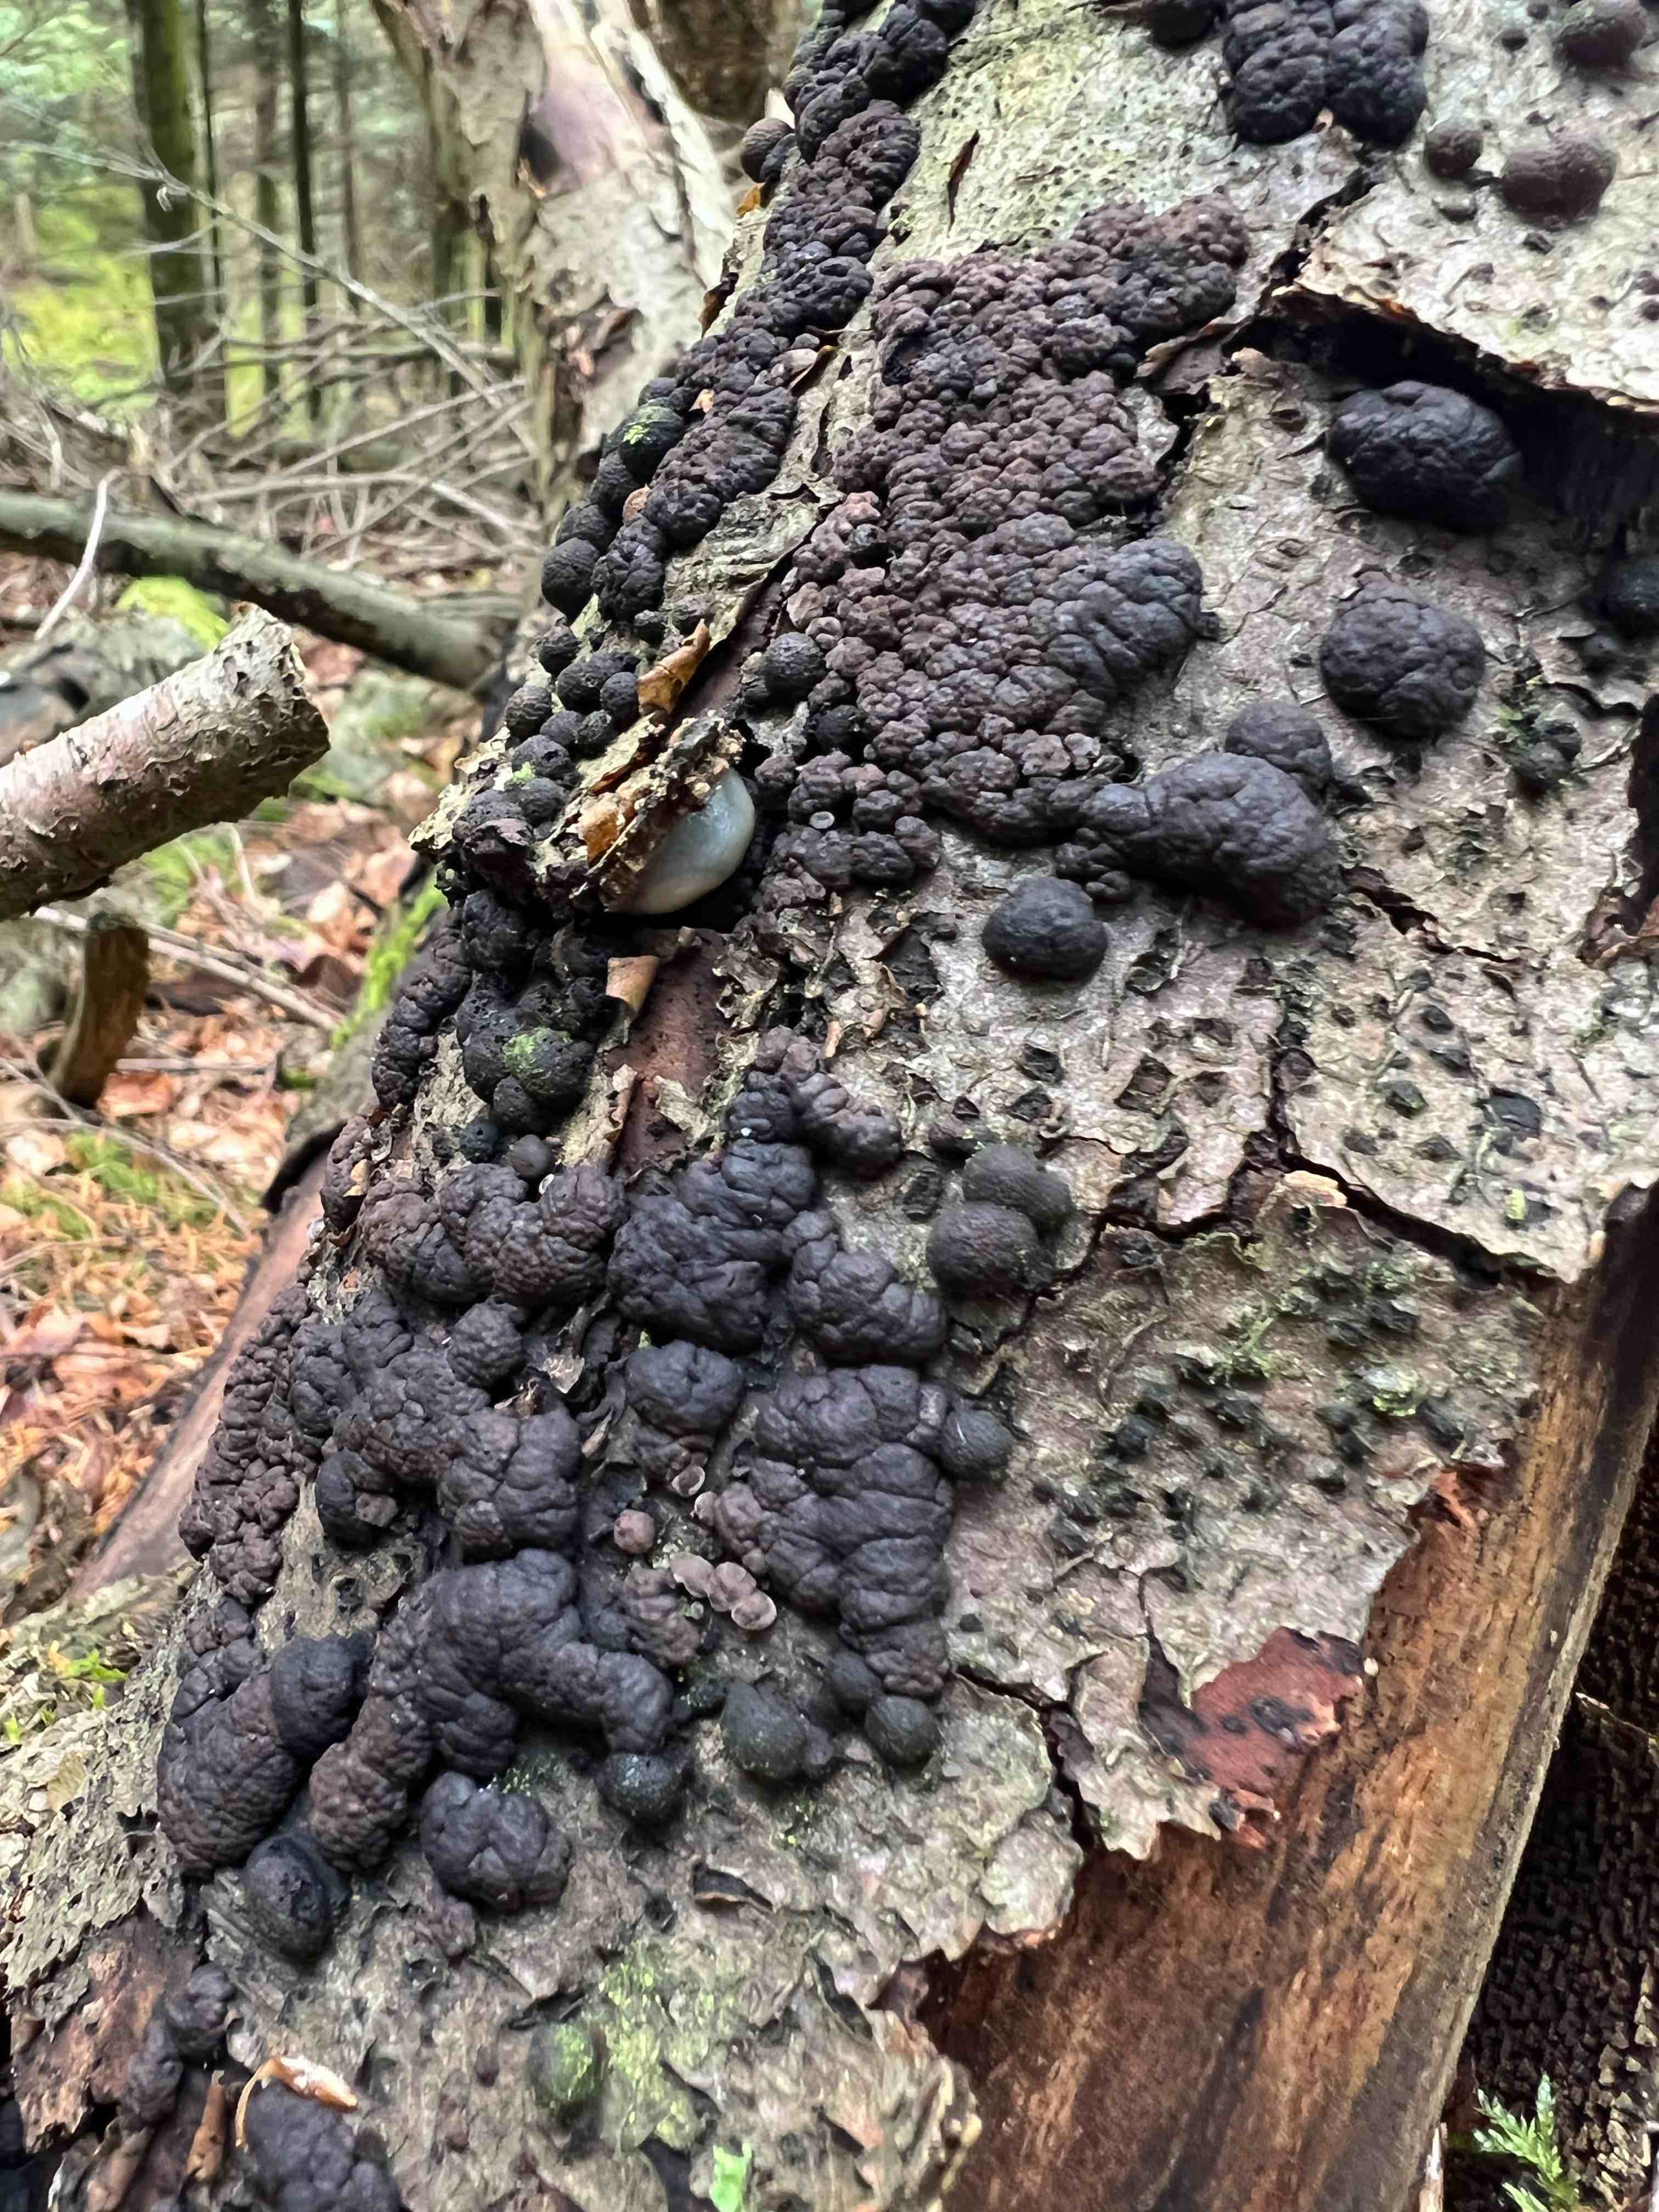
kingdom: Fungi
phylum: Ascomycota
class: Sordariomycetes
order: Xylariales
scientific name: Xylariales
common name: stødsvampordenen
